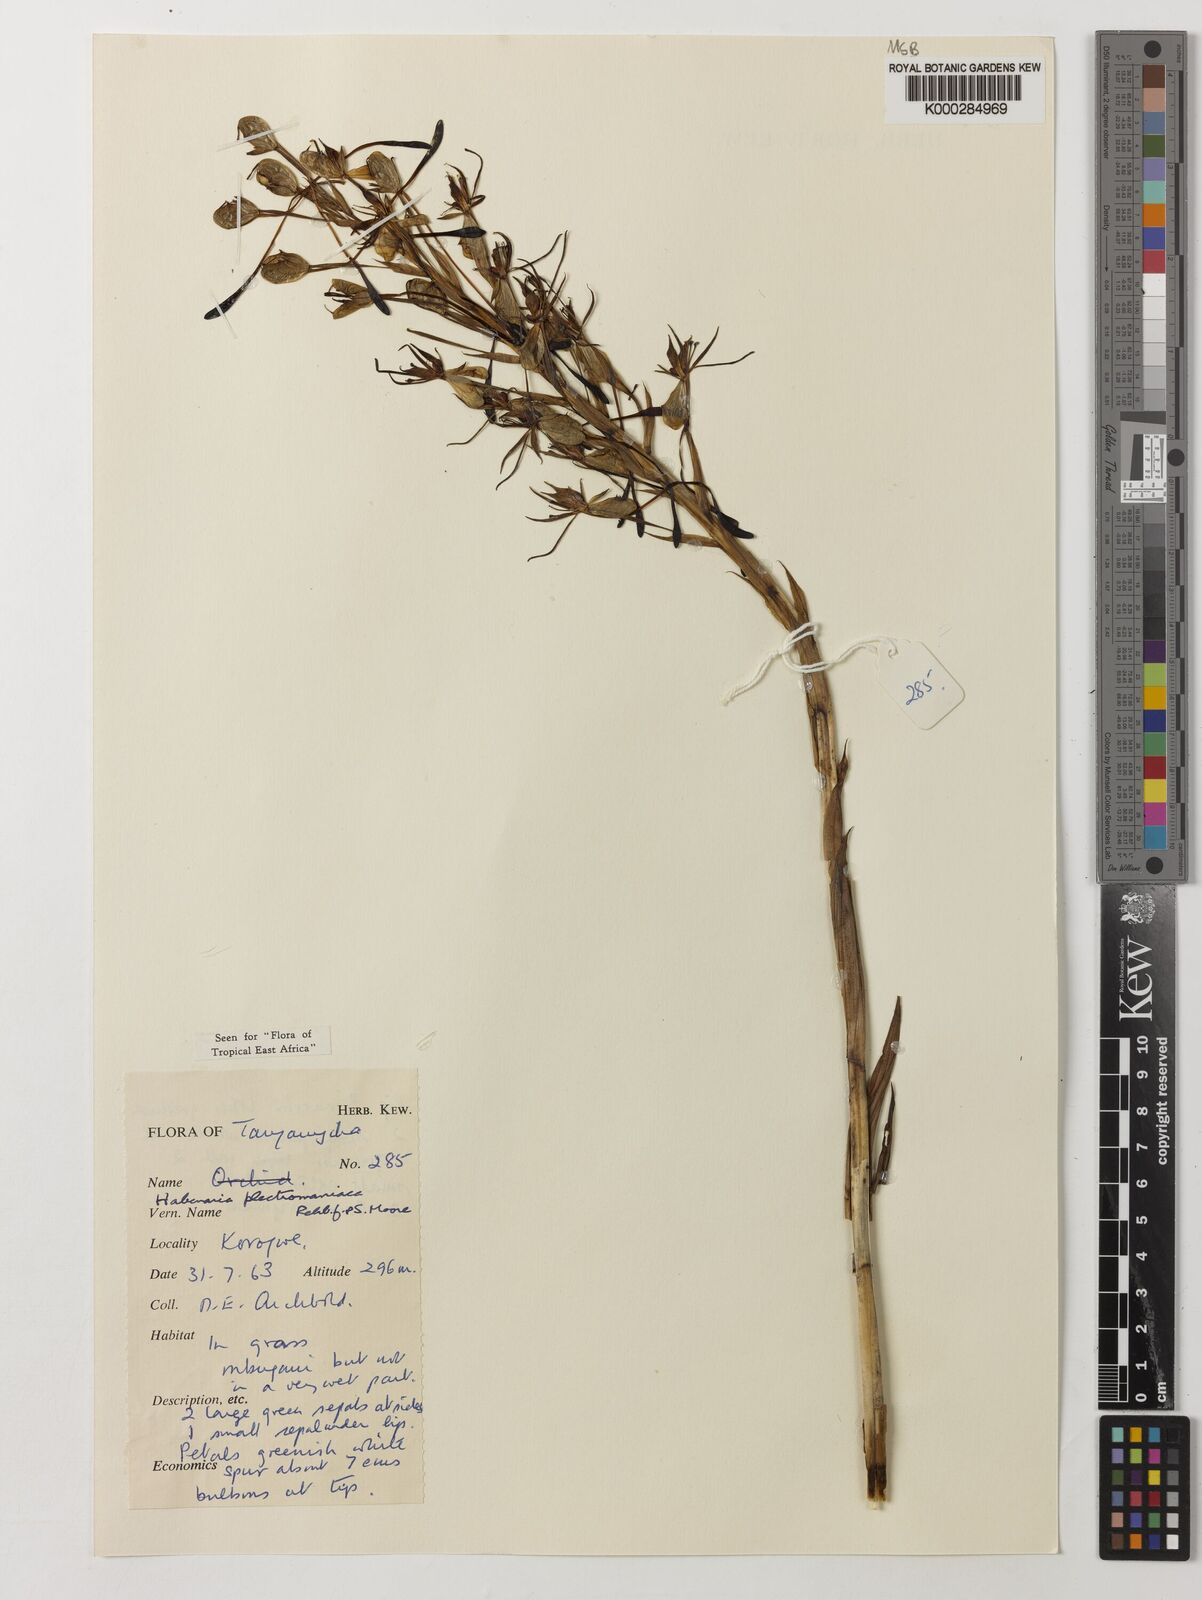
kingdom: Plantae
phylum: Tracheophyta
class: Liliopsida
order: Asparagales
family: Orchidaceae
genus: Habenaria
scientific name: Habenaria plectromaniaca
